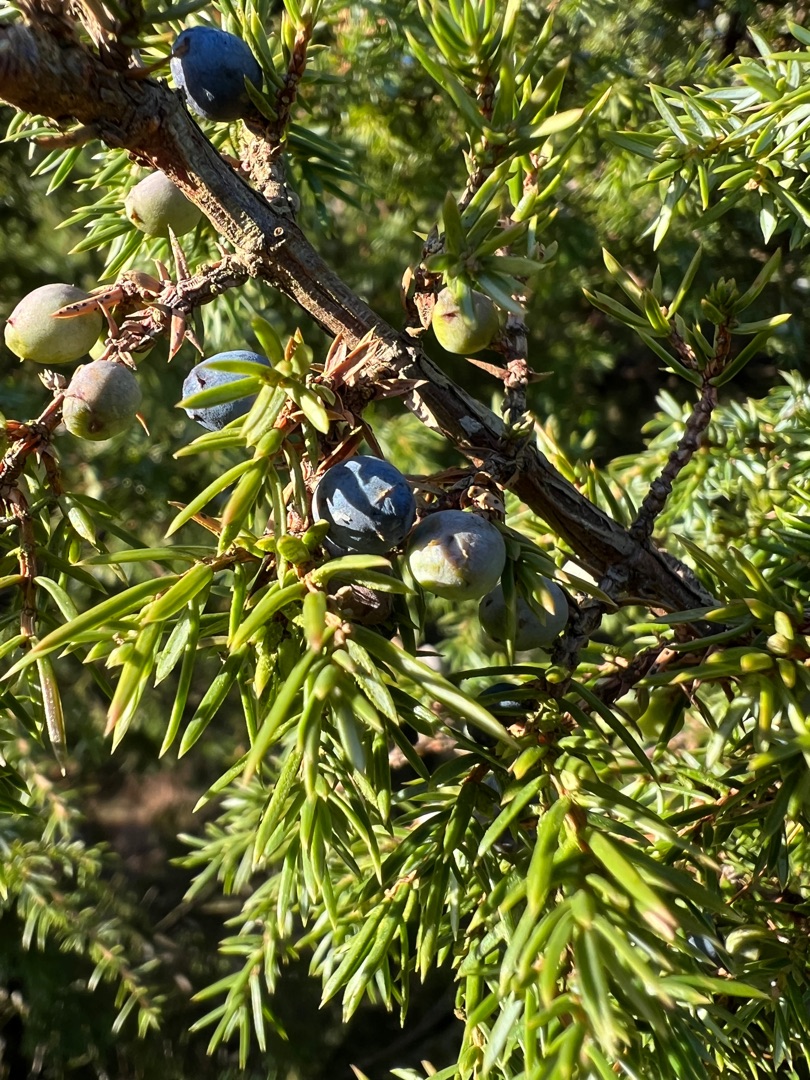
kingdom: Plantae
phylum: Tracheophyta
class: Pinopsida
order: Pinales
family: Cupressaceae
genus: Juniperus
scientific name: Juniperus communis
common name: Almindelig ene
